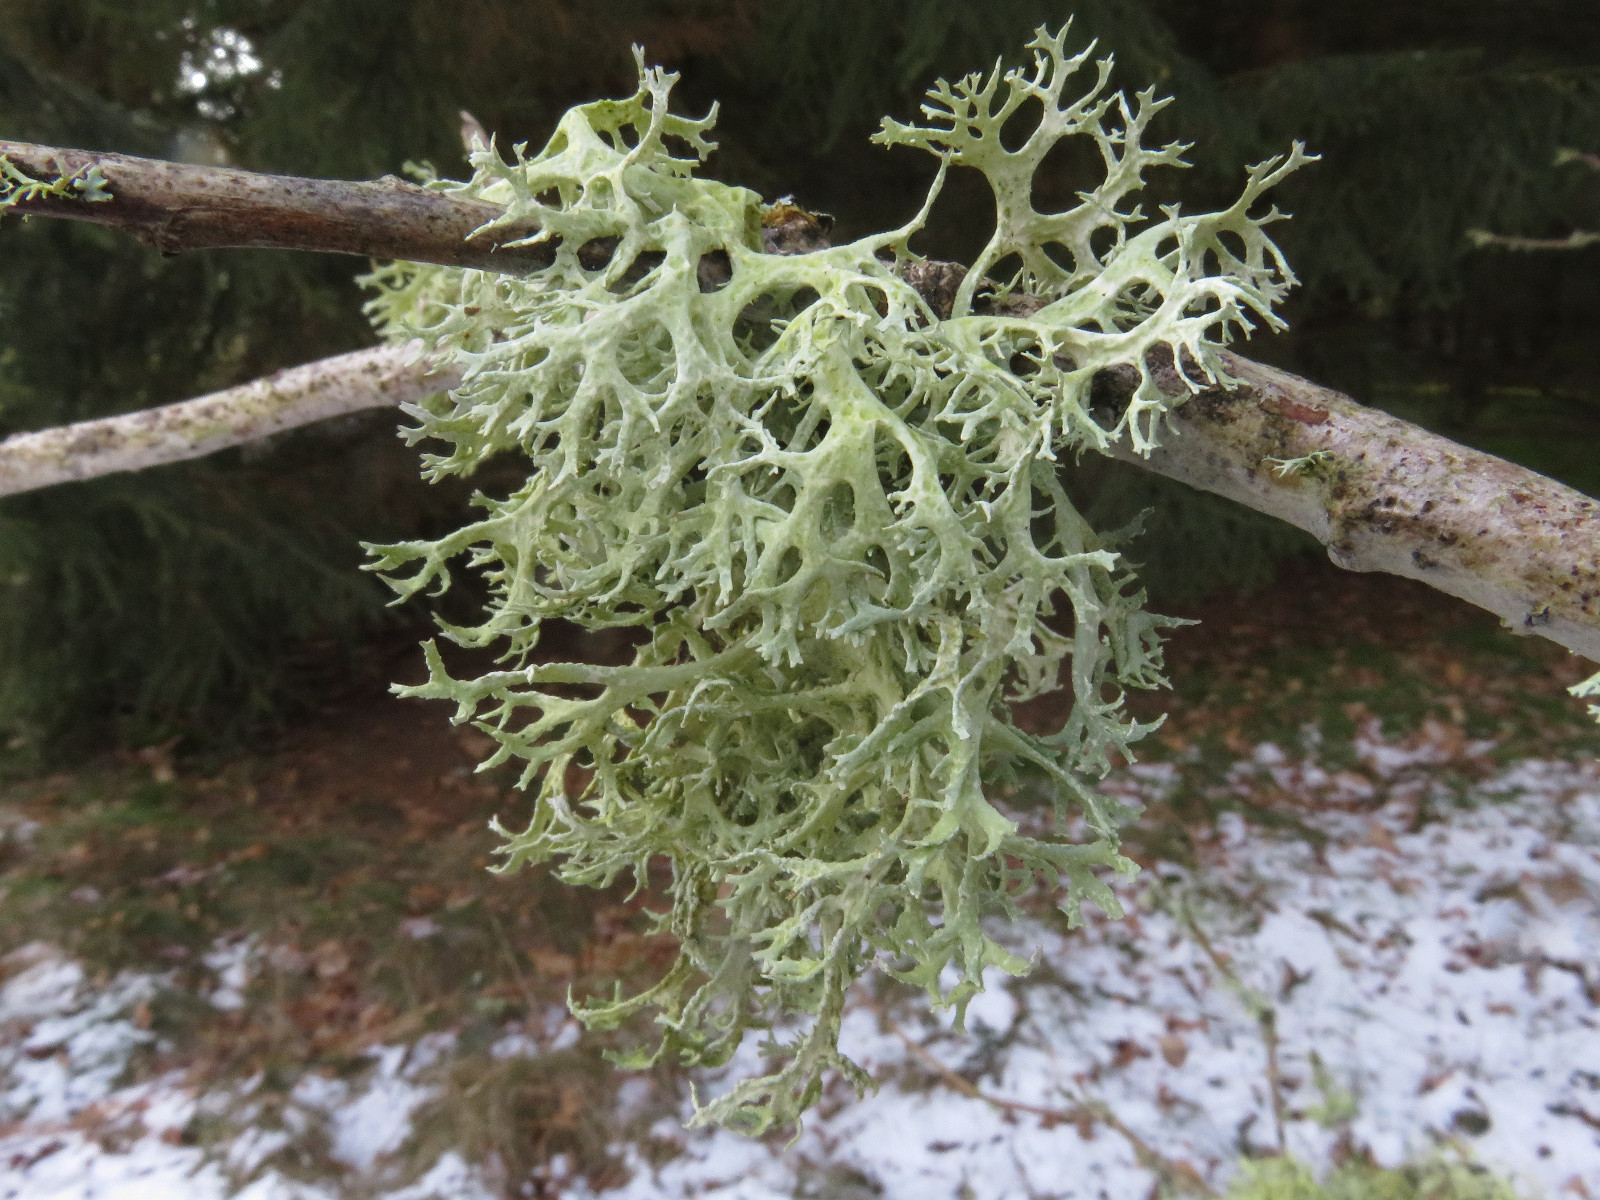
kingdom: Fungi
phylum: Ascomycota
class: Lecanoromycetes
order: Lecanorales
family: Parmeliaceae
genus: Evernia
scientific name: Evernia prunastri
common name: almindelig slåenlav
